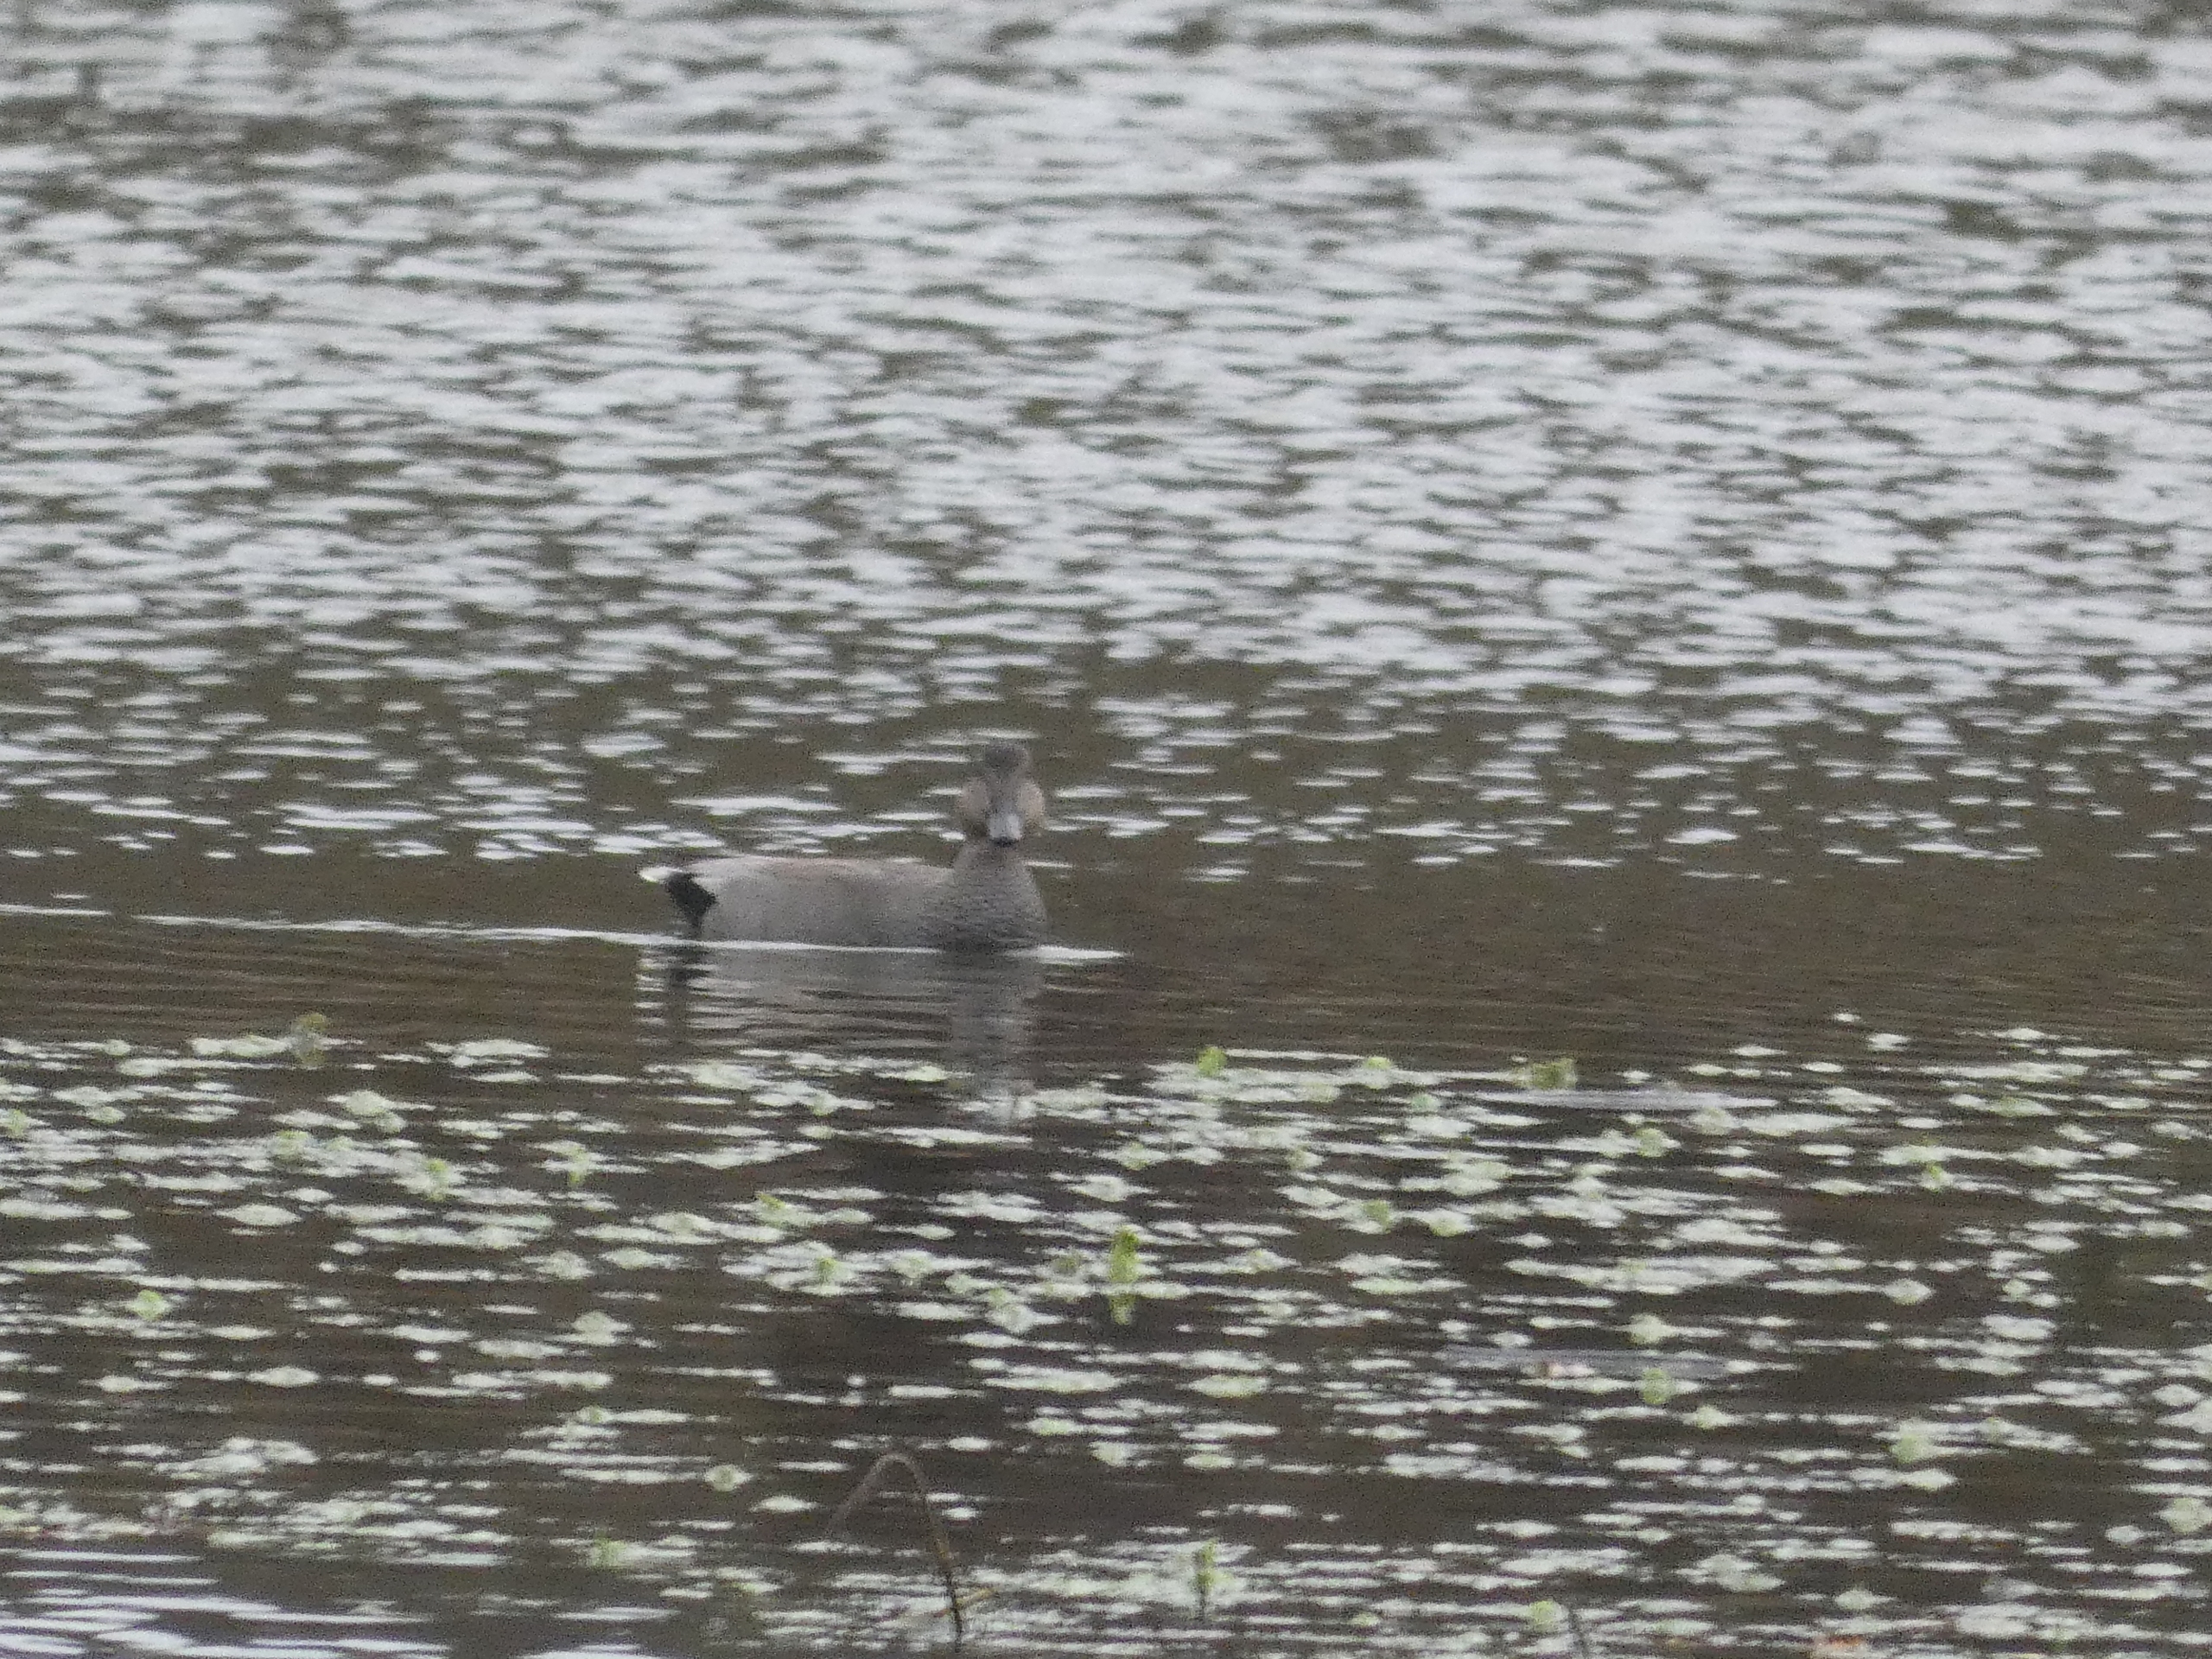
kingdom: Animalia
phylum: Chordata
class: Aves
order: Anseriformes
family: Anatidae
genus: Mareca
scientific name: Mareca strepera
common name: Knarand
